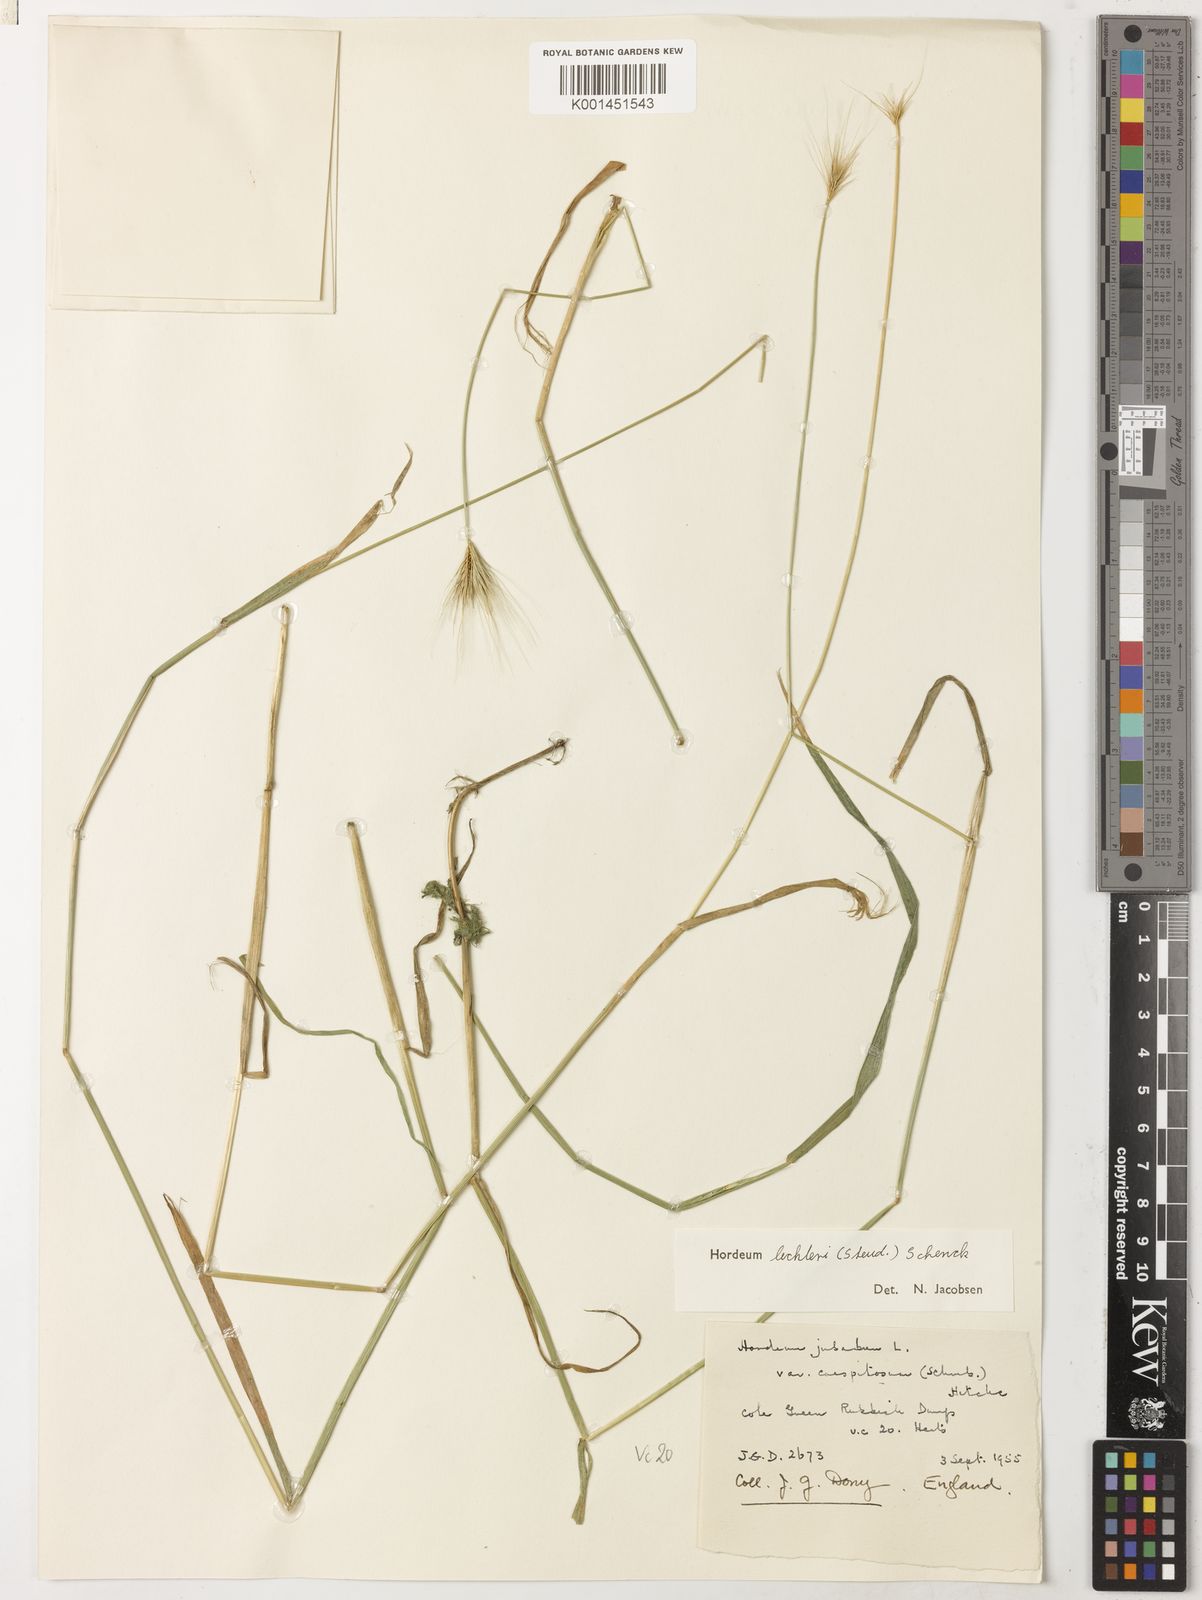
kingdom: Plantae
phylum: Tracheophyta
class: Liliopsida
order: Poales
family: Poaceae
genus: Hordeum
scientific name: Hordeum lechleri
